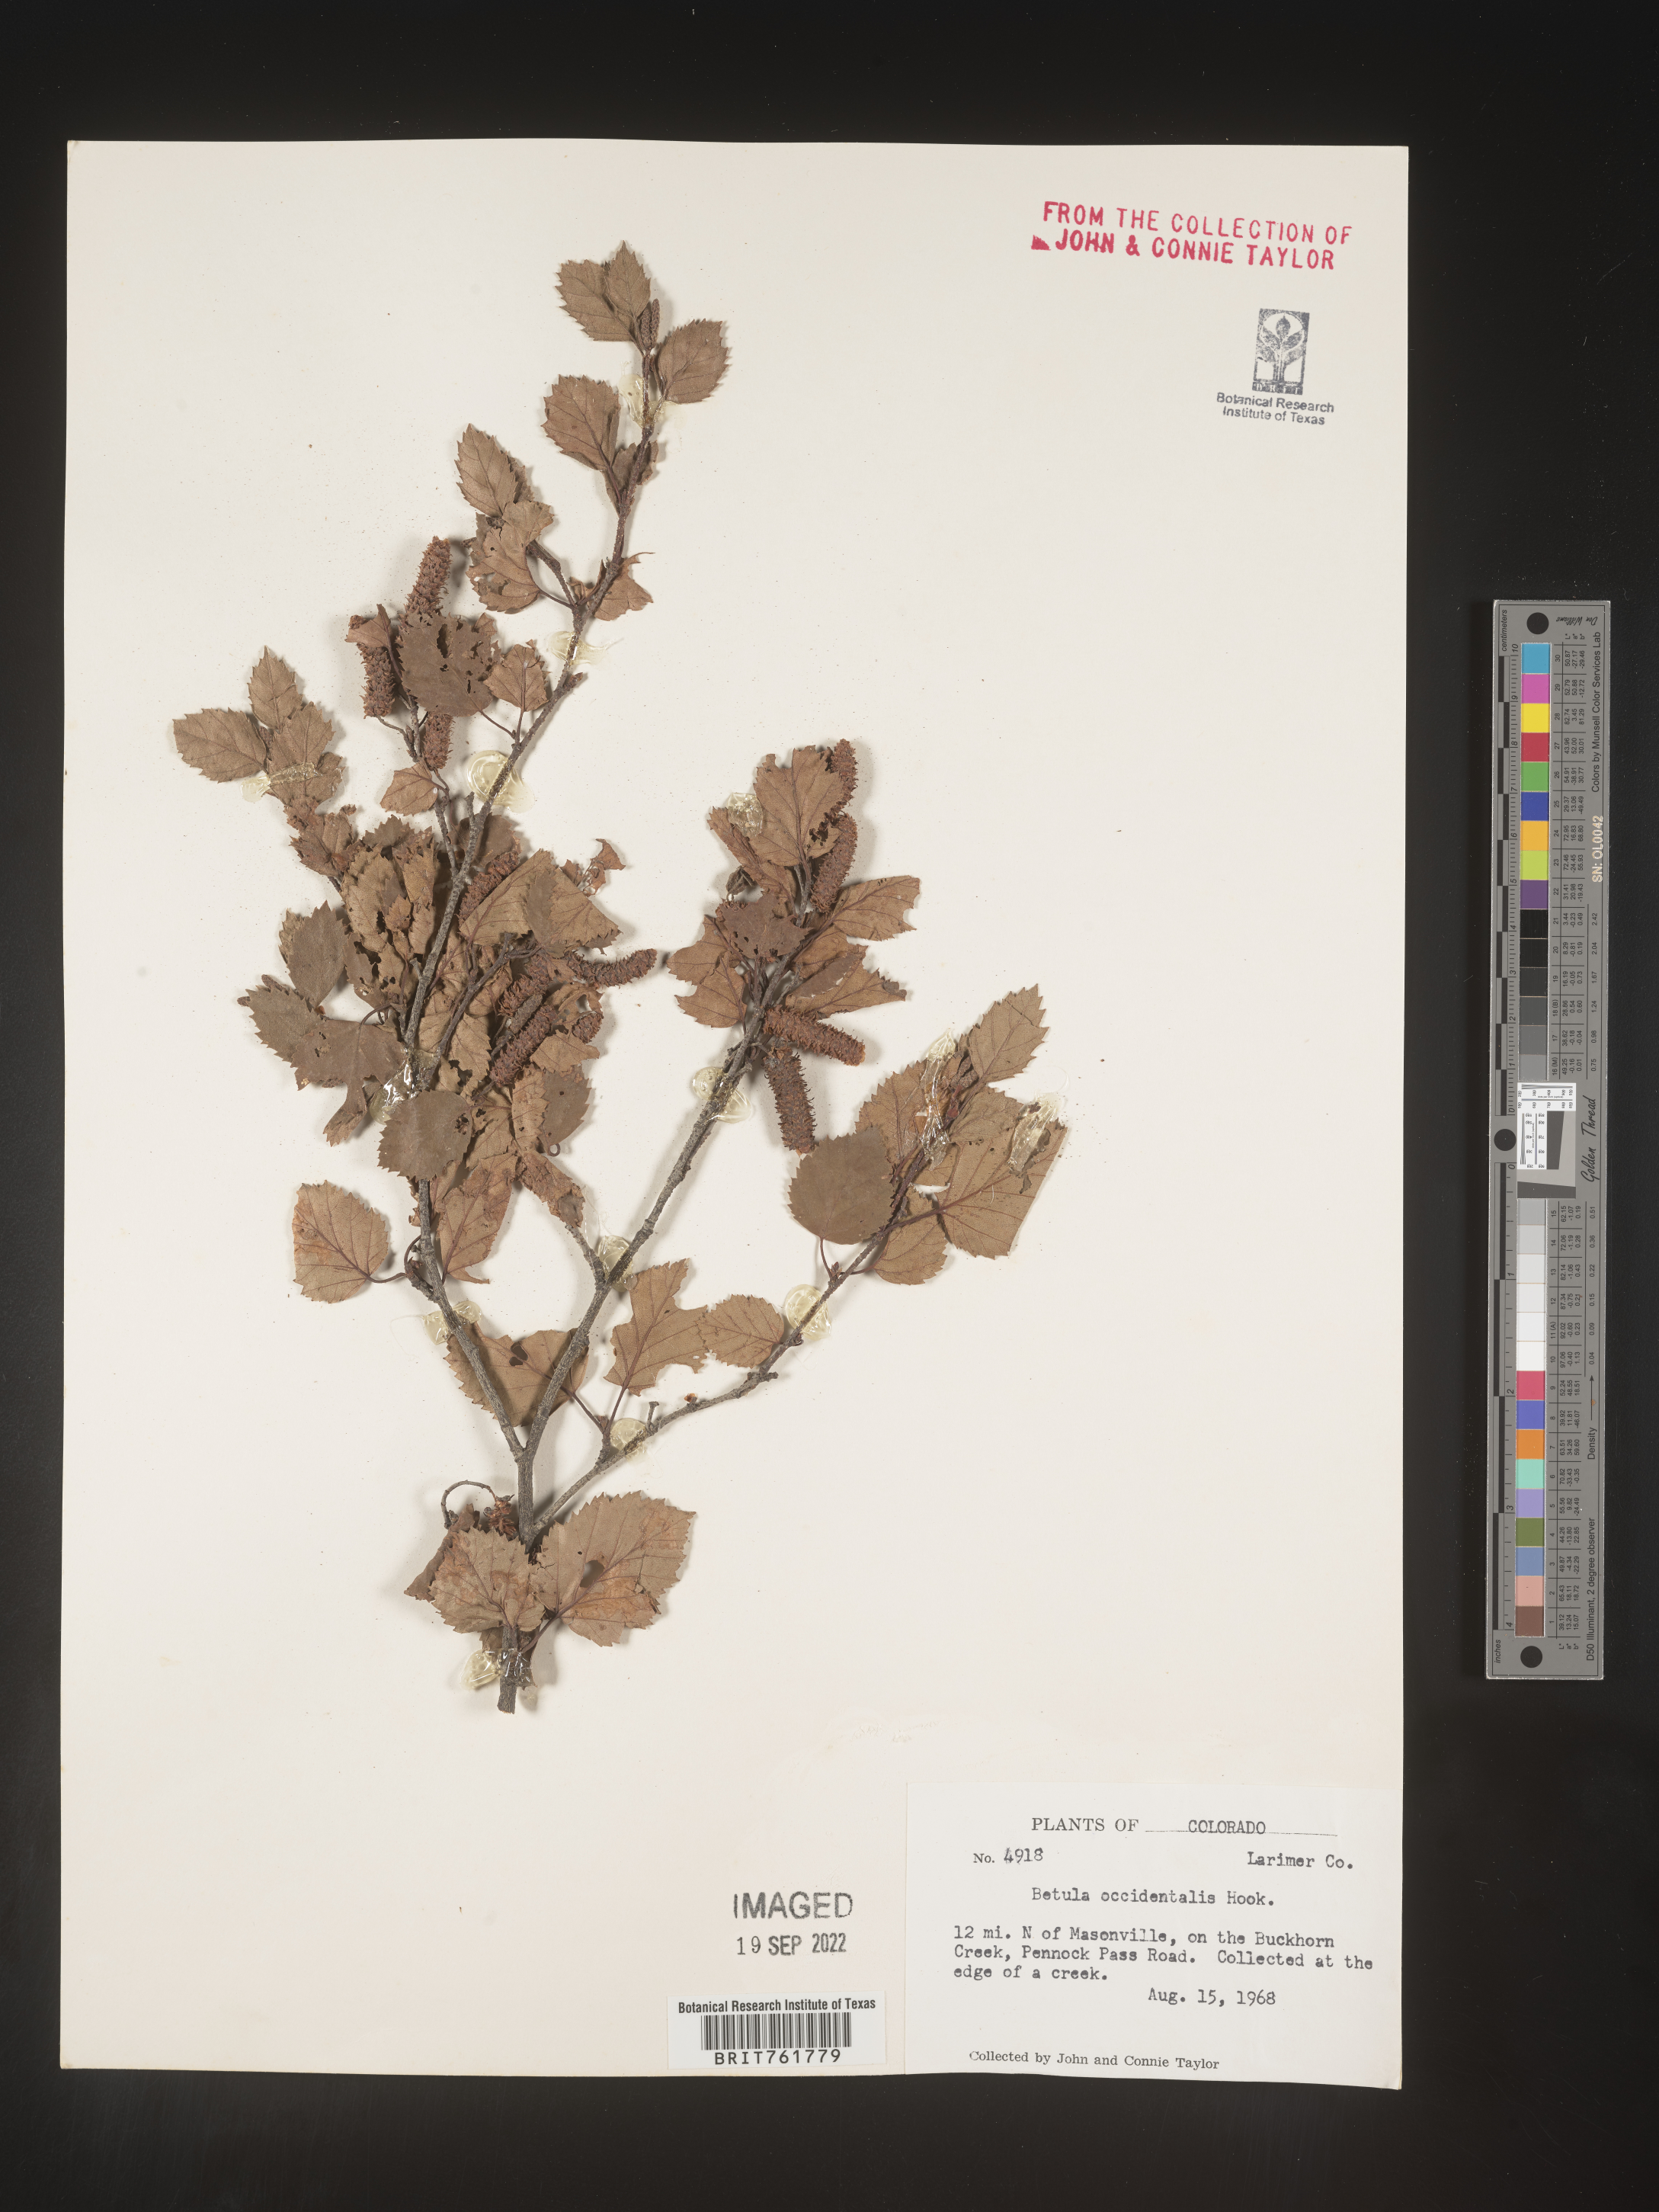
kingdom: Plantae
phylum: Tracheophyta
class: Magnoliopsida
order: Fagales
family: Betulaceae
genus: Betula
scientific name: Betula occidentalis
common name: River birch
